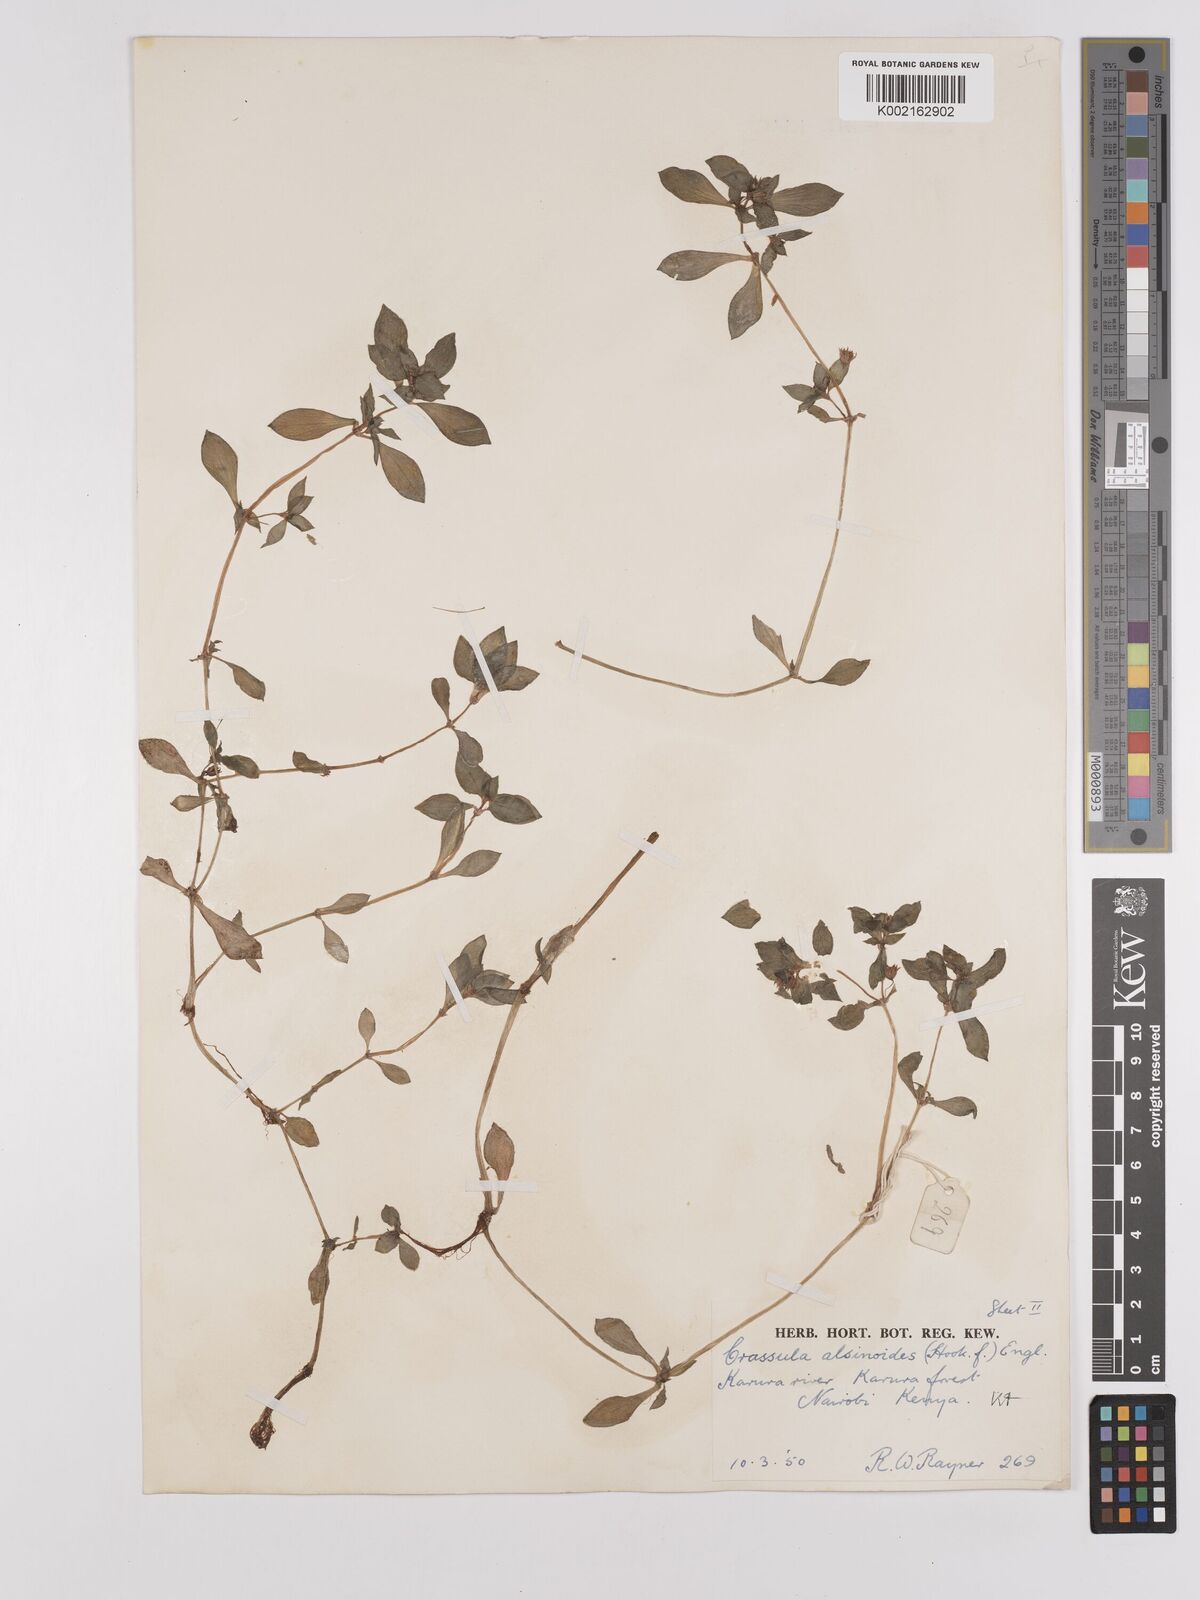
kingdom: Plantae
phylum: Tracheophyta
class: Magnoliopsida
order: Saxifragales
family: Crassulaceae
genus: Crassula
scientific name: Crassula alsinoides
